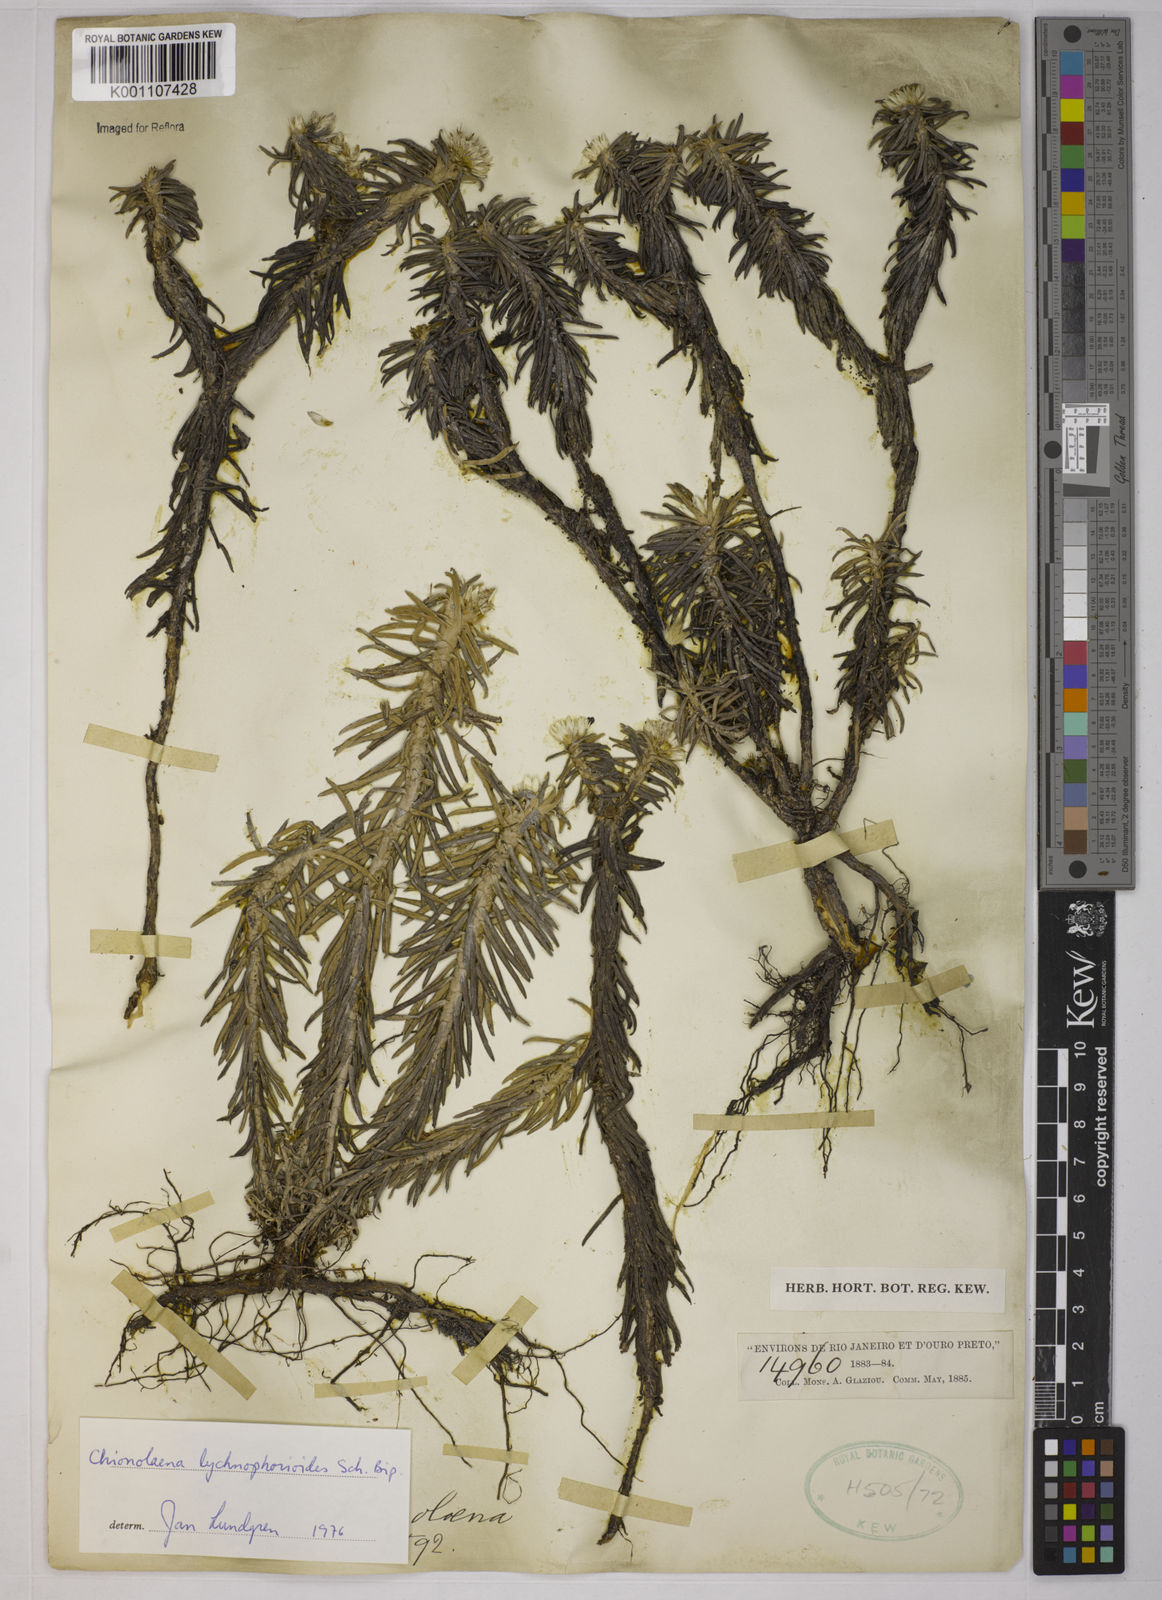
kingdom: Plantae
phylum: Tracheophyta
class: Magnoliopsida
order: Asterales
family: Asteraceae
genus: Chionolaena
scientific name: Chionolaena lychnophorioides
